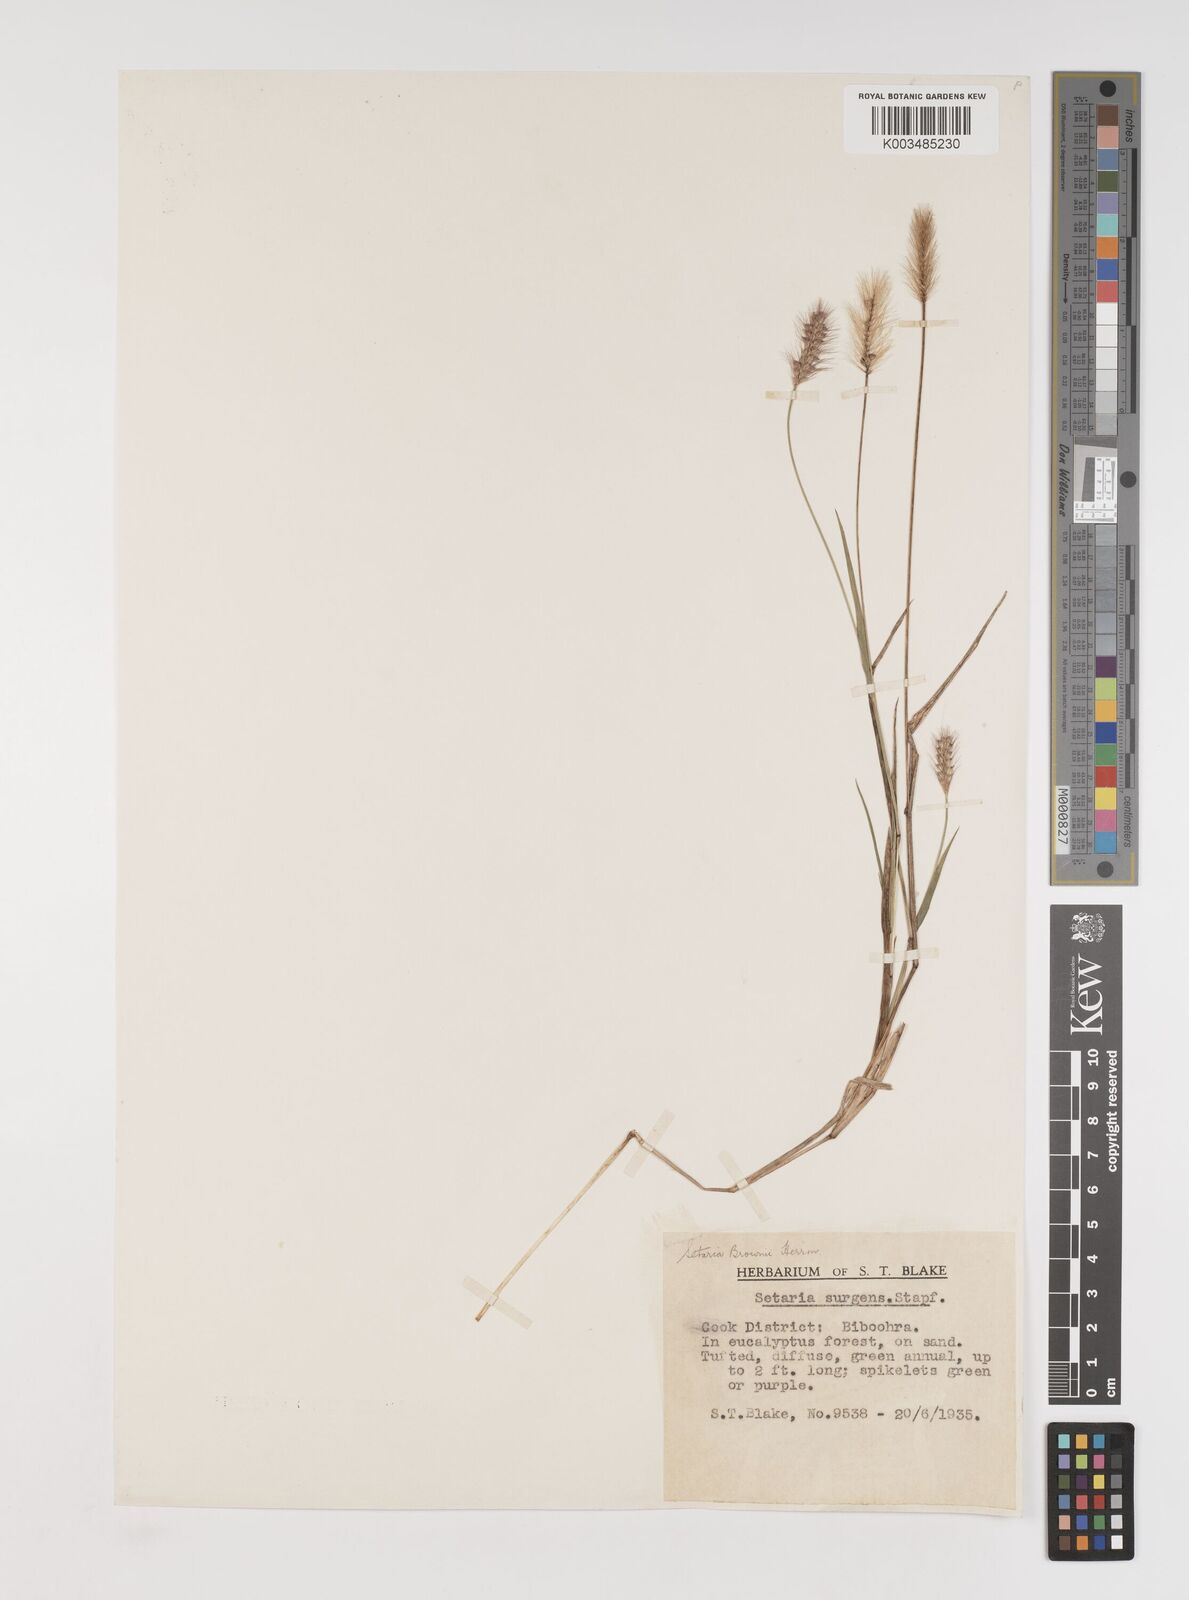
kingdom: Plantae
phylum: Tracheophyta
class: Liliopsida
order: Poales
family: Poaceae
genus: Setaria
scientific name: Setaria surgens
